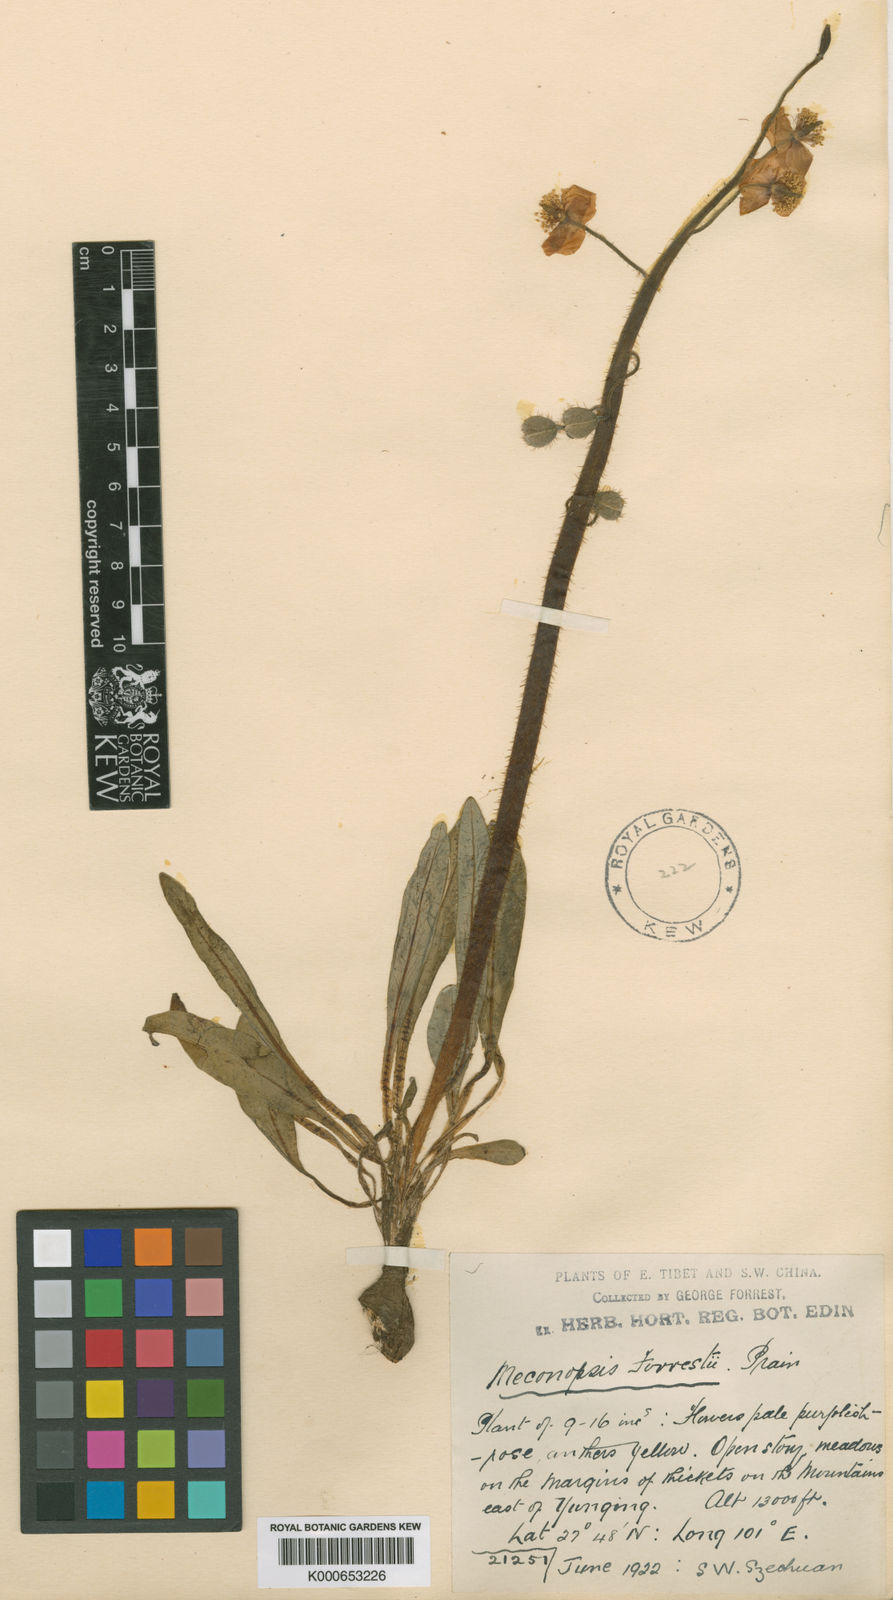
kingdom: Plantae
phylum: Tracheophyta
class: Magnoliopsida
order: Ranunculales
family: Papaveraceae
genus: Meconopsis
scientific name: Meconopsis forrestii
